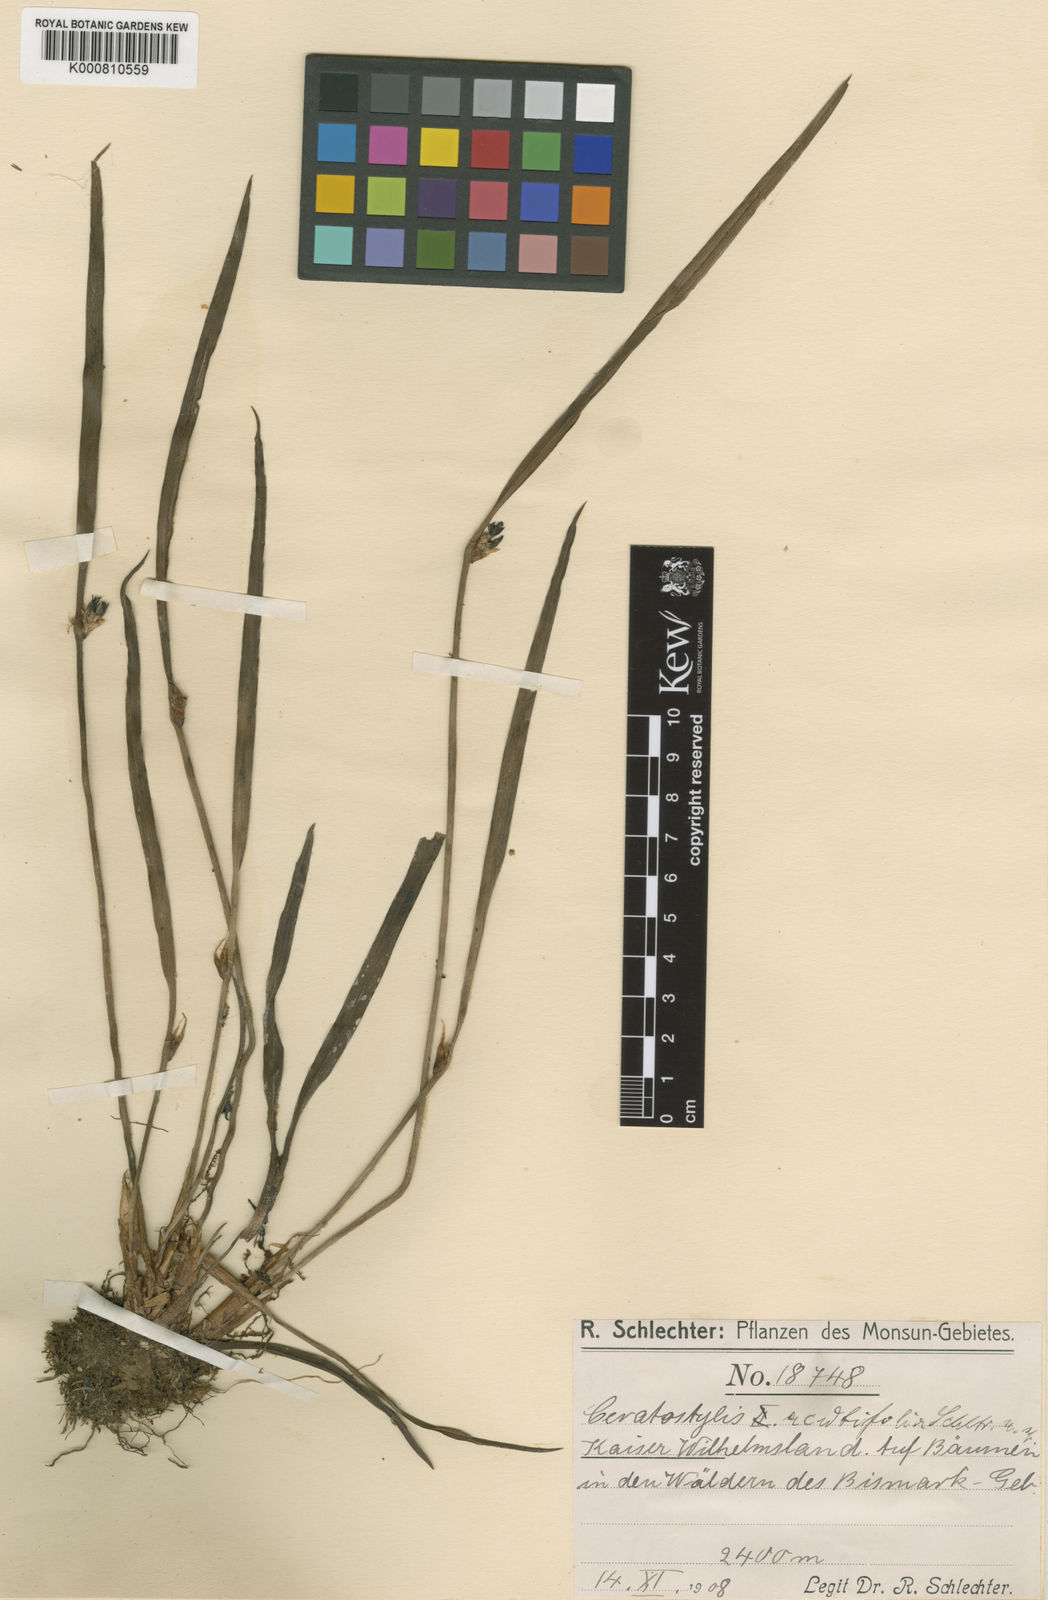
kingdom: Plantae
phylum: Tracheophyta
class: Liliopsida
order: Asparagales
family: Orchidaceae
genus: Ceratostylis
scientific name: Ceratostylis acutifolia
